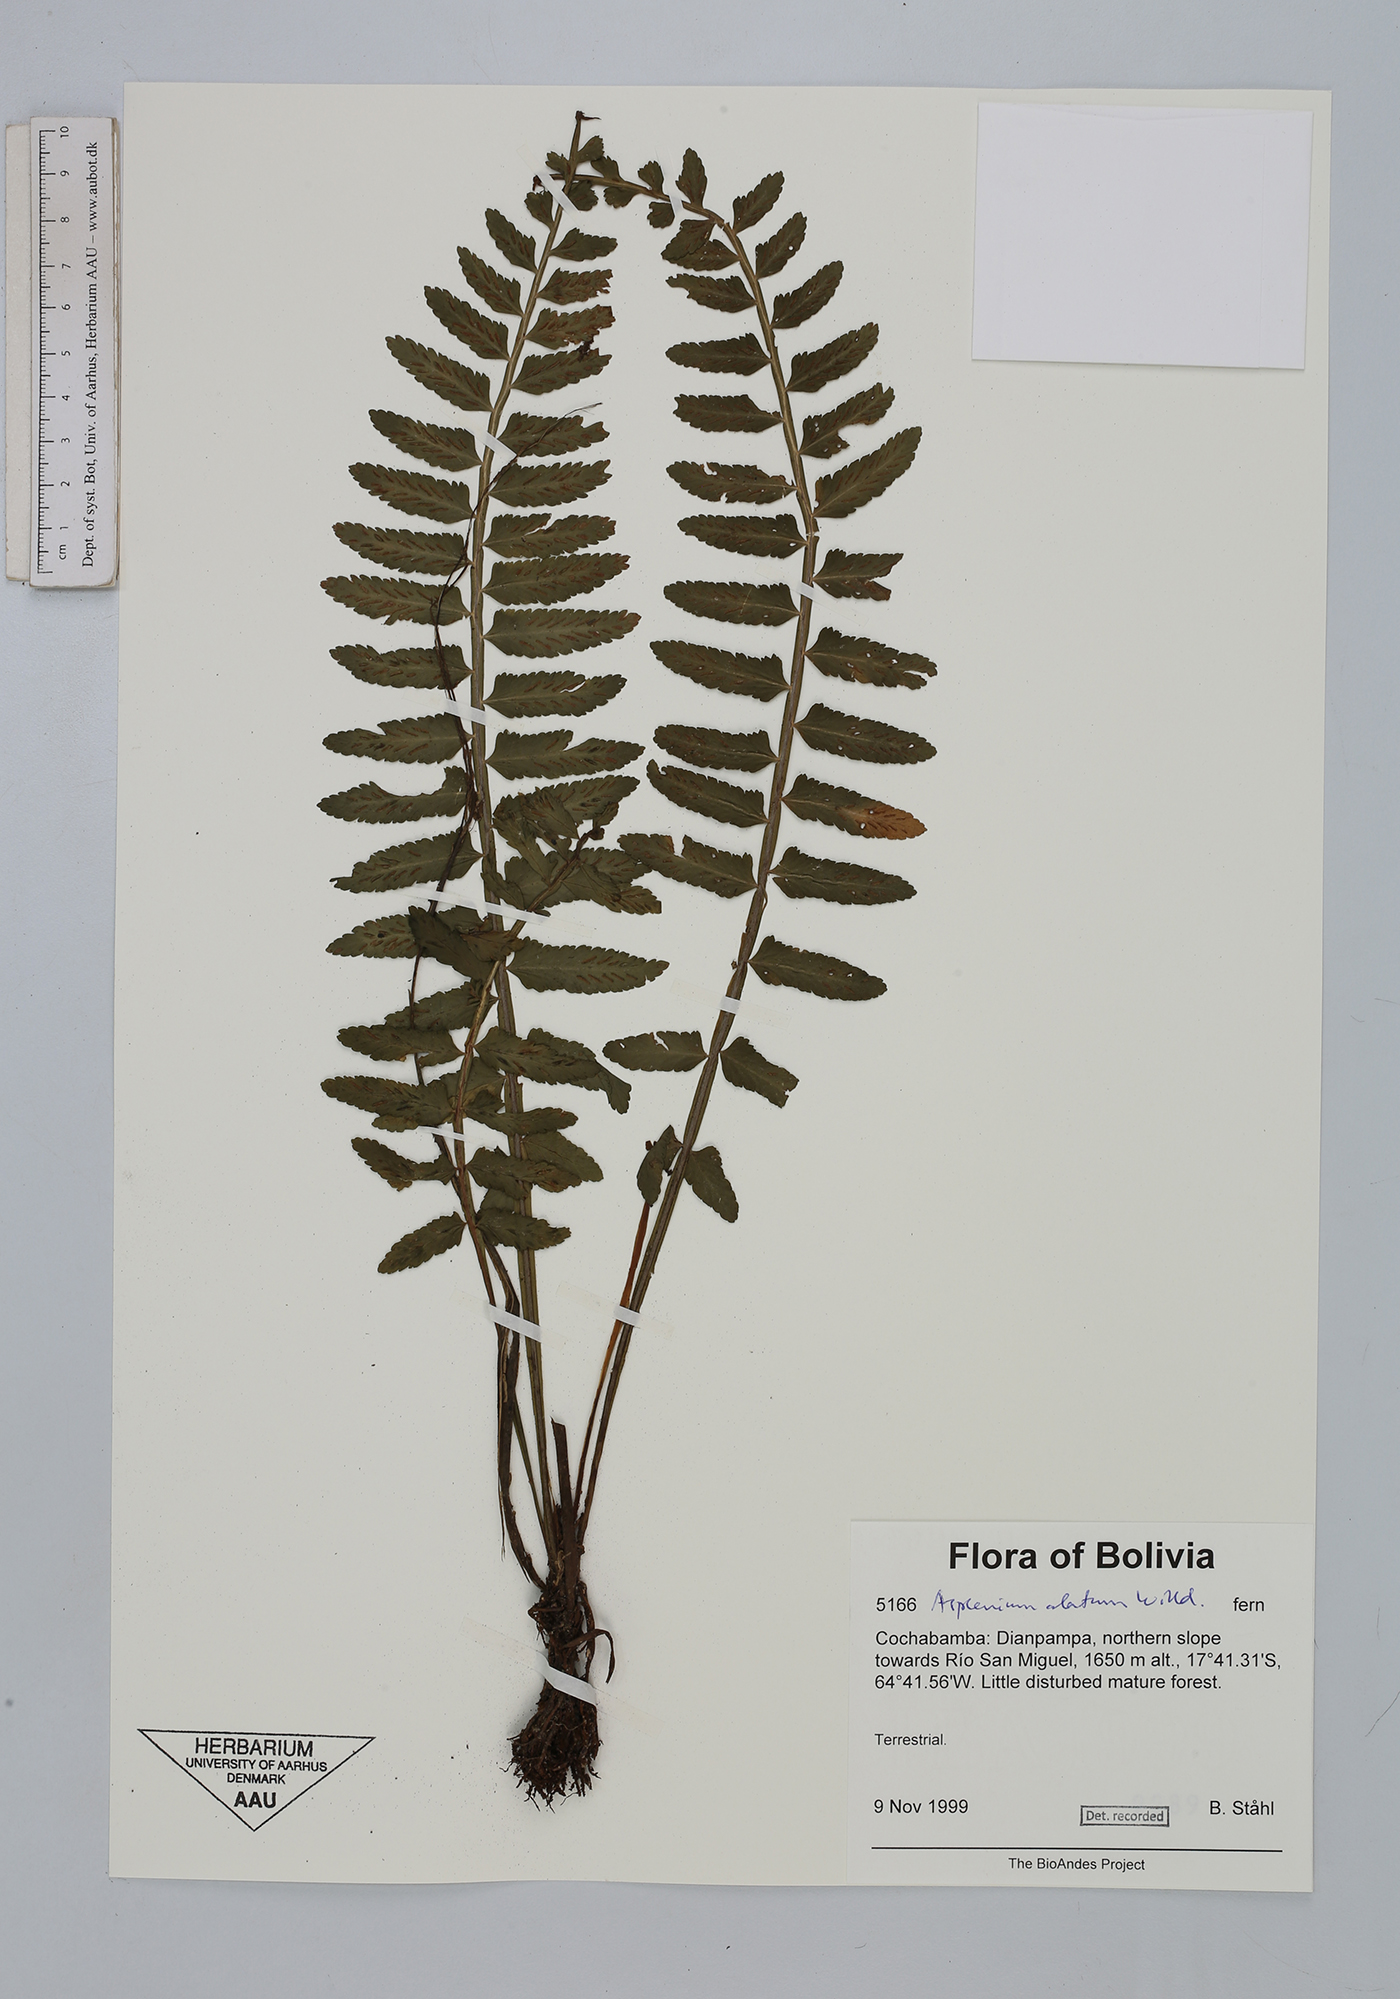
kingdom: Plantae
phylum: Tracheophyta
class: Polypodiopsida
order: Polypodiales
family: Aspleniaceae
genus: Asplenium
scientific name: Asplenium alatum
